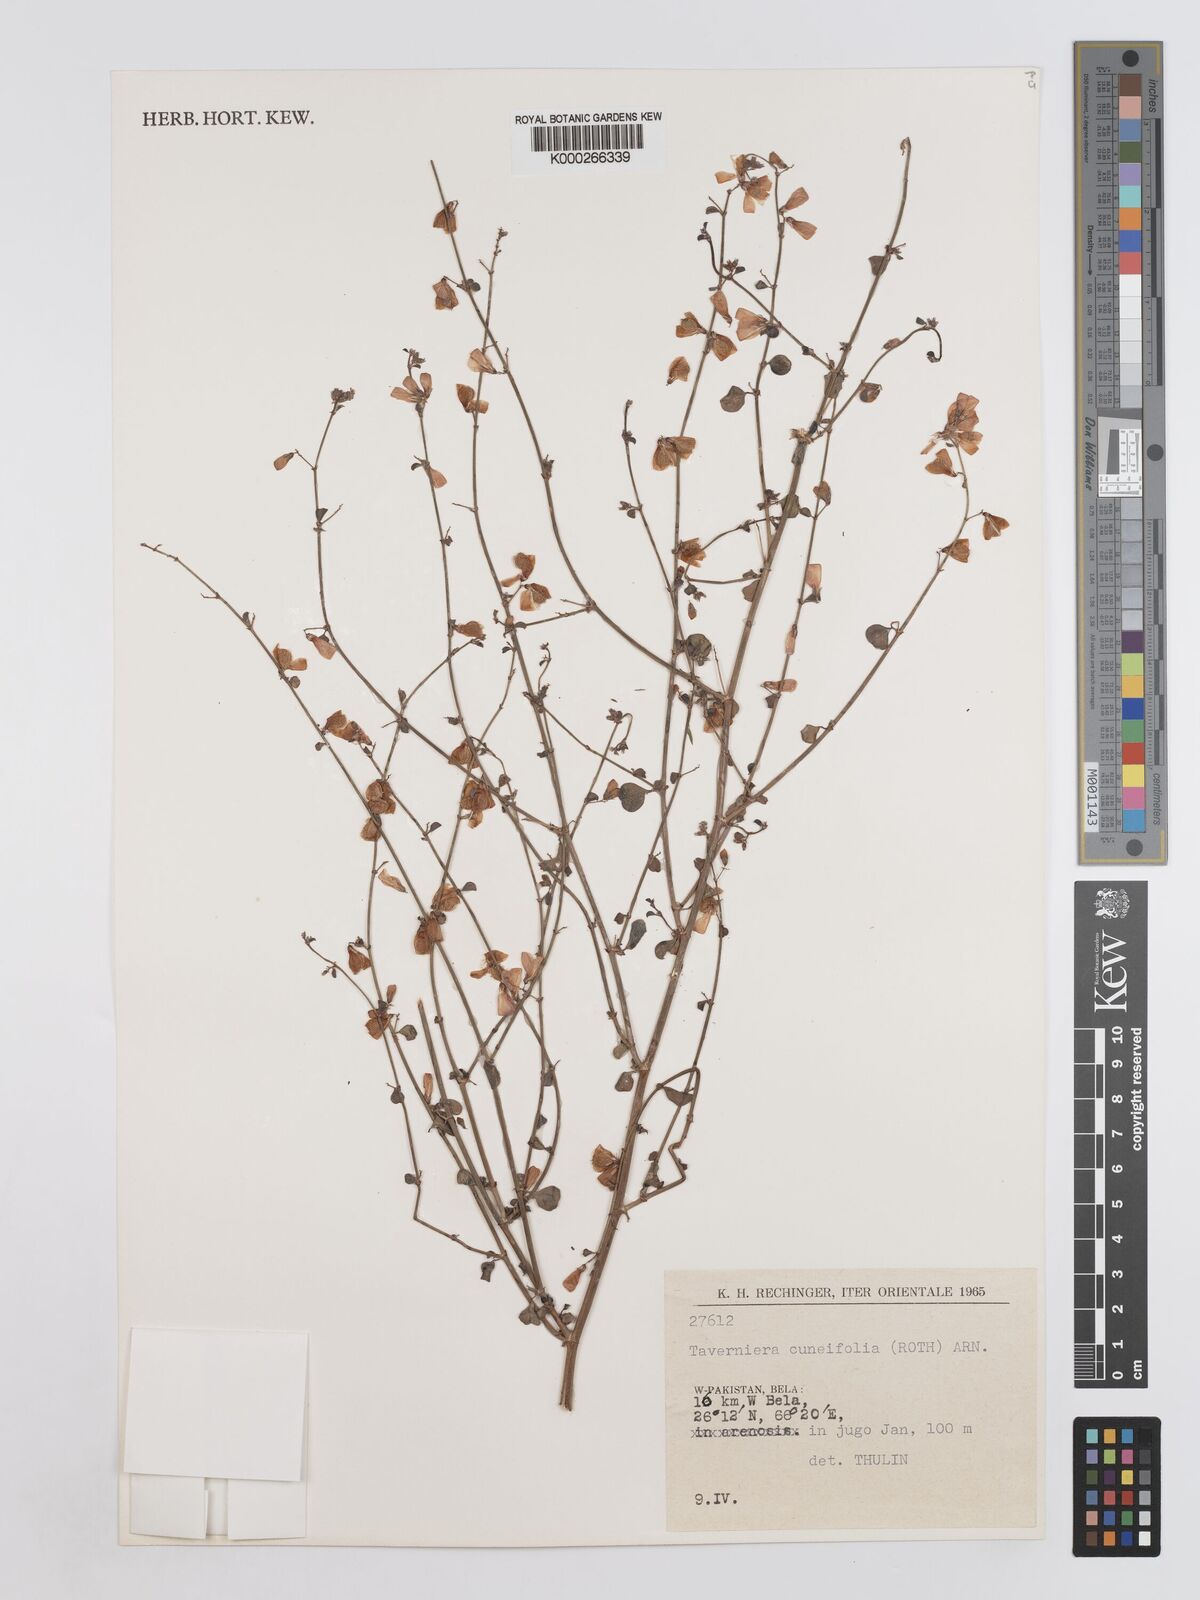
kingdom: Plantae
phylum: Tracheophyta
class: Magnoliopsida
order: Fabales
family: Fabaceae
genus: Taverniera
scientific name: Taverniera cuneifolia
